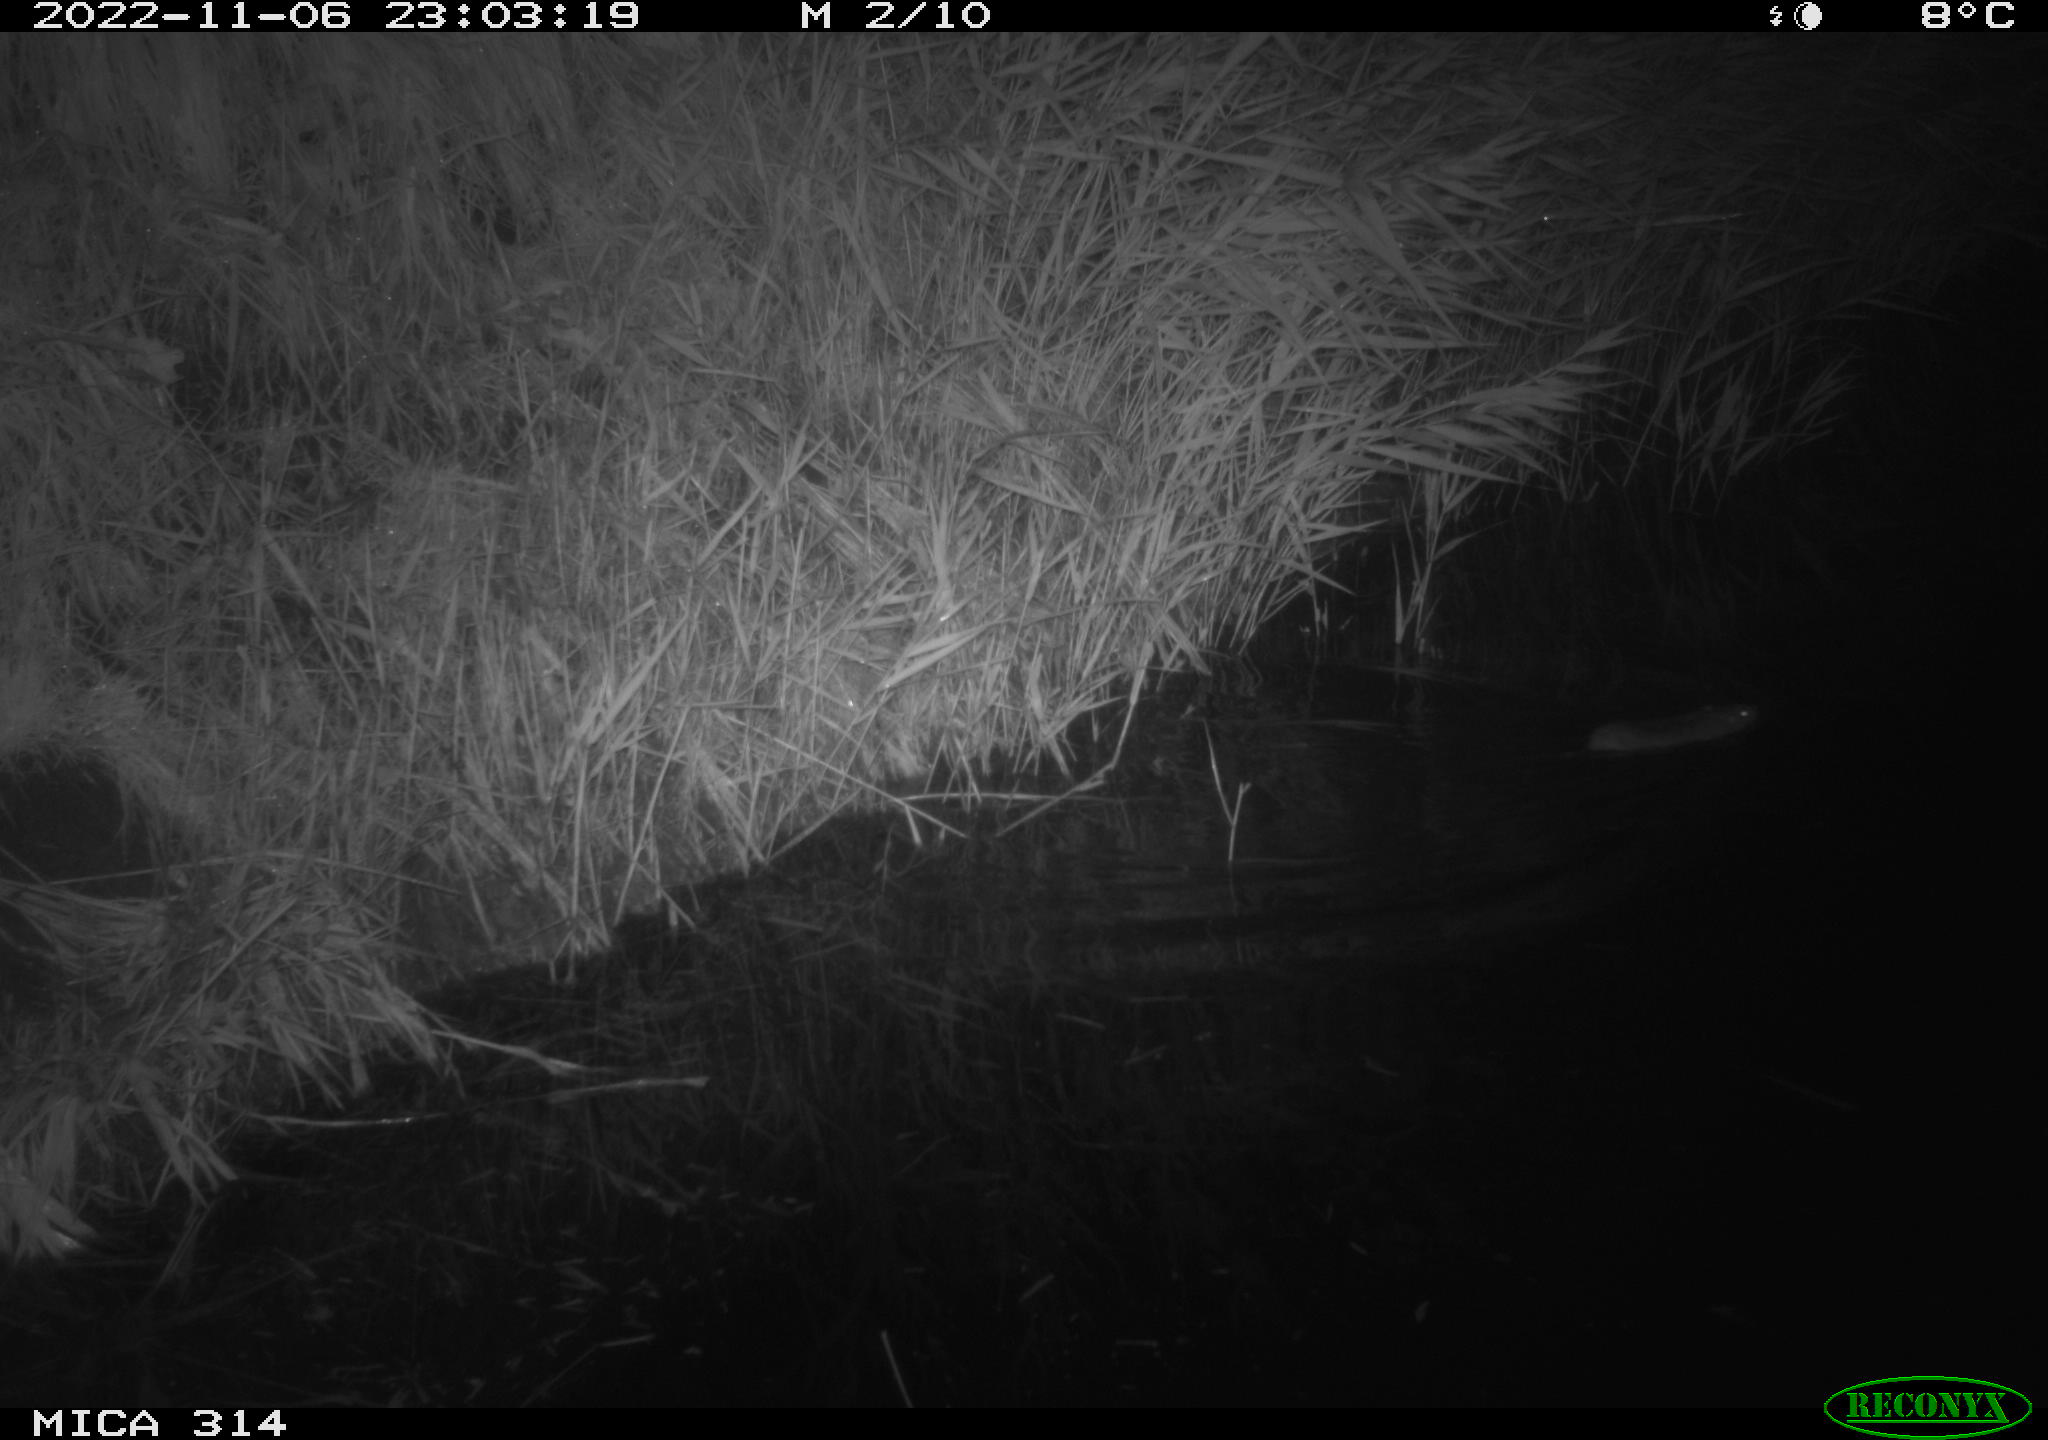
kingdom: Animalia
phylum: Chordata
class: Mammalia
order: Rodentia
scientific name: Rodentia
